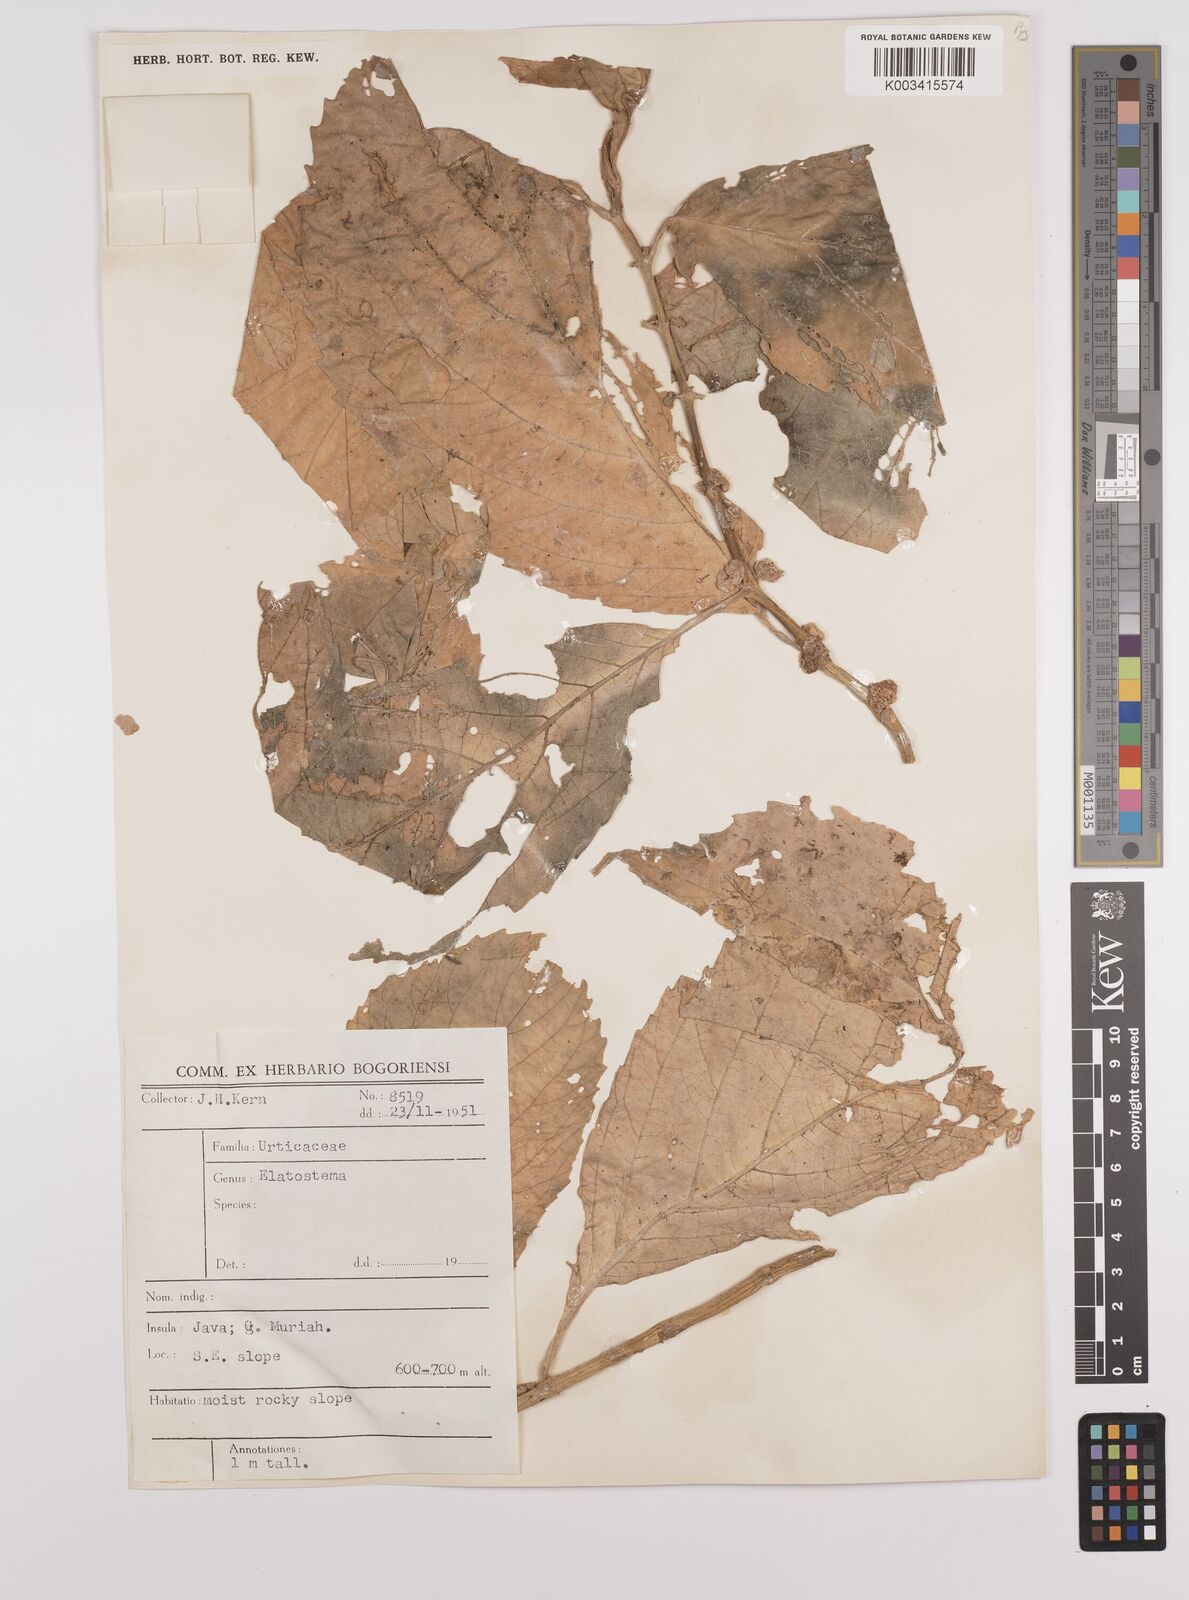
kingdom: Plantae
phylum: Tracheophyta
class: Magnoliopsida
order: Rosales
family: Urticaceae
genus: Elatostema
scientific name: Elatostema
